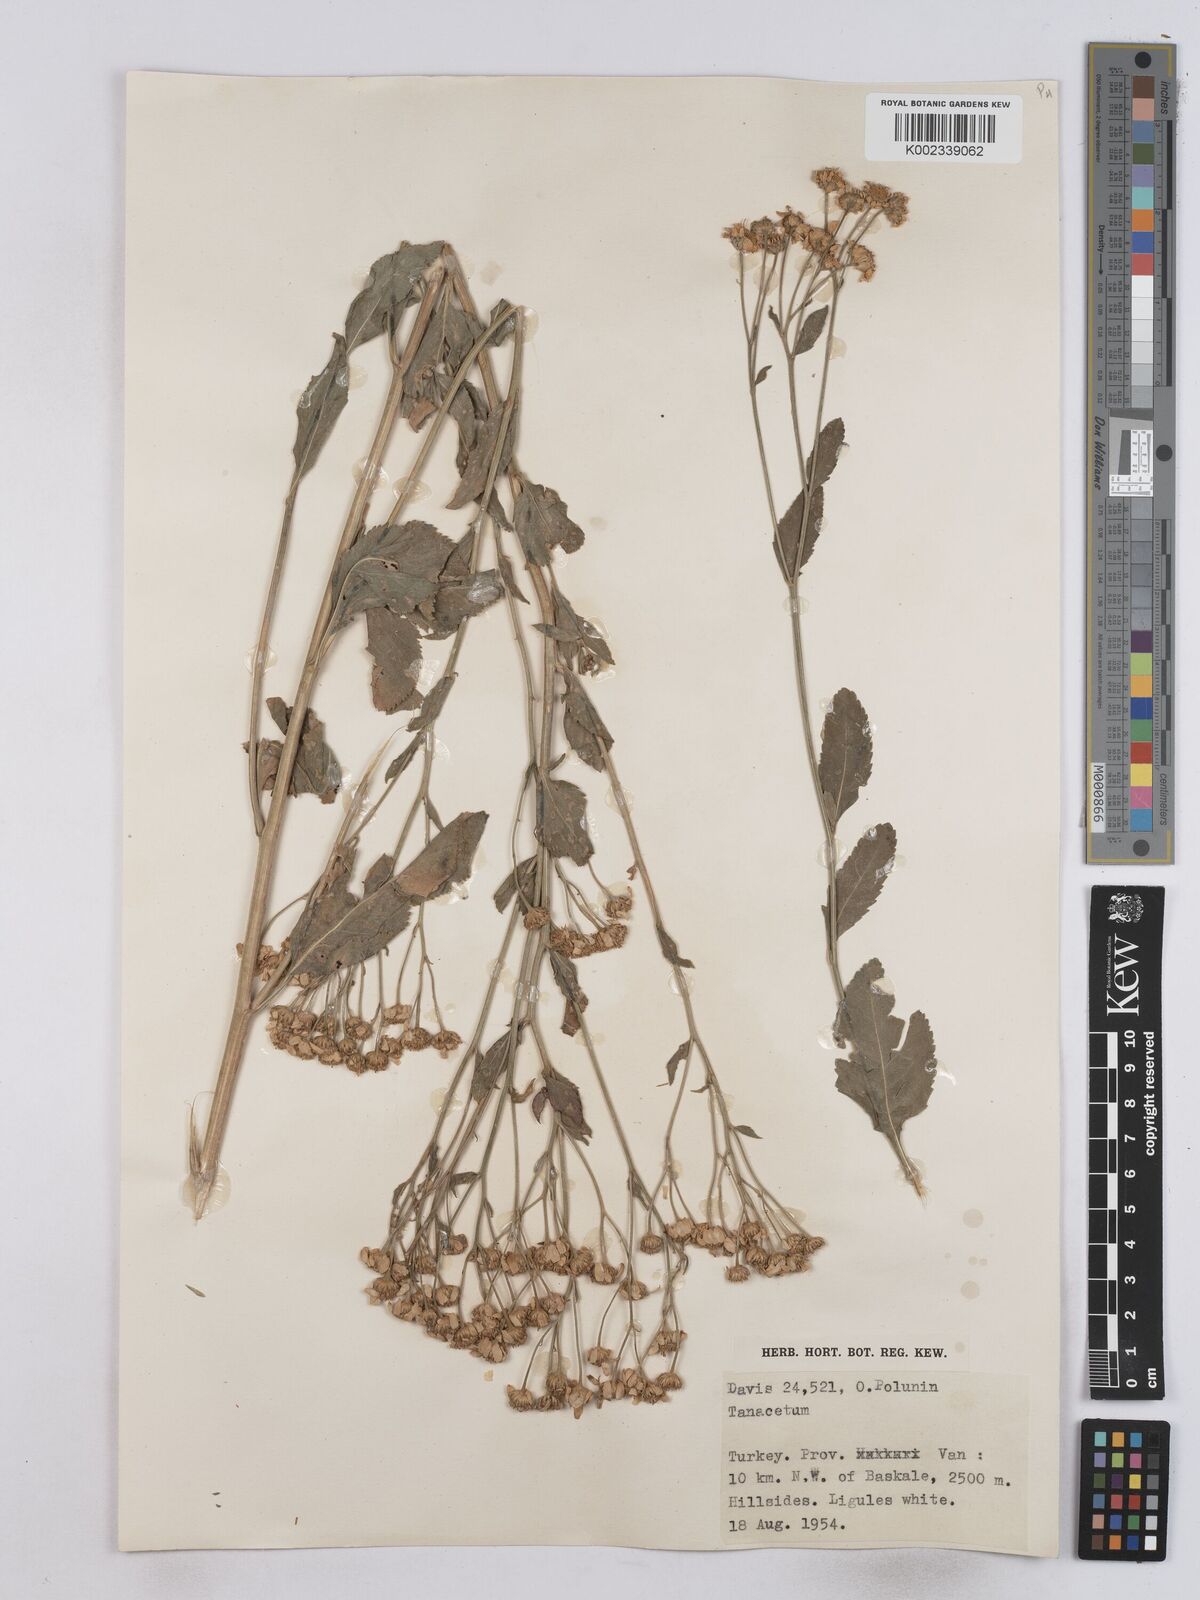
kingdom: Plantae
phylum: Tracheophyta
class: Magnoliopsida
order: Asterales
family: Asteraceae
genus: Tanacetum
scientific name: Tanacetum balsamita
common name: Costmary
